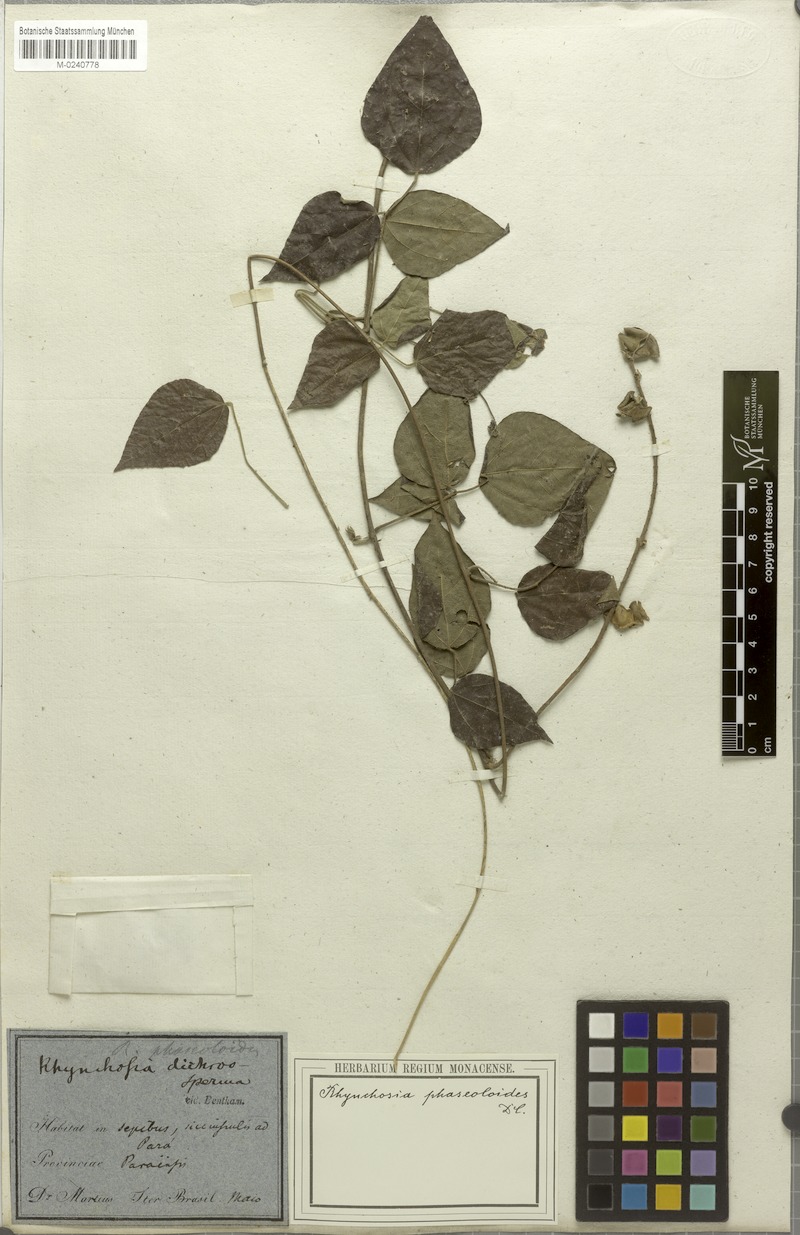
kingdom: Plantae
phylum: Tracheophyta
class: Magnoliopsida
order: Fabales
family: Fabaceae
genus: Rhynchosia
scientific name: Rhynchosia phaseoloides
